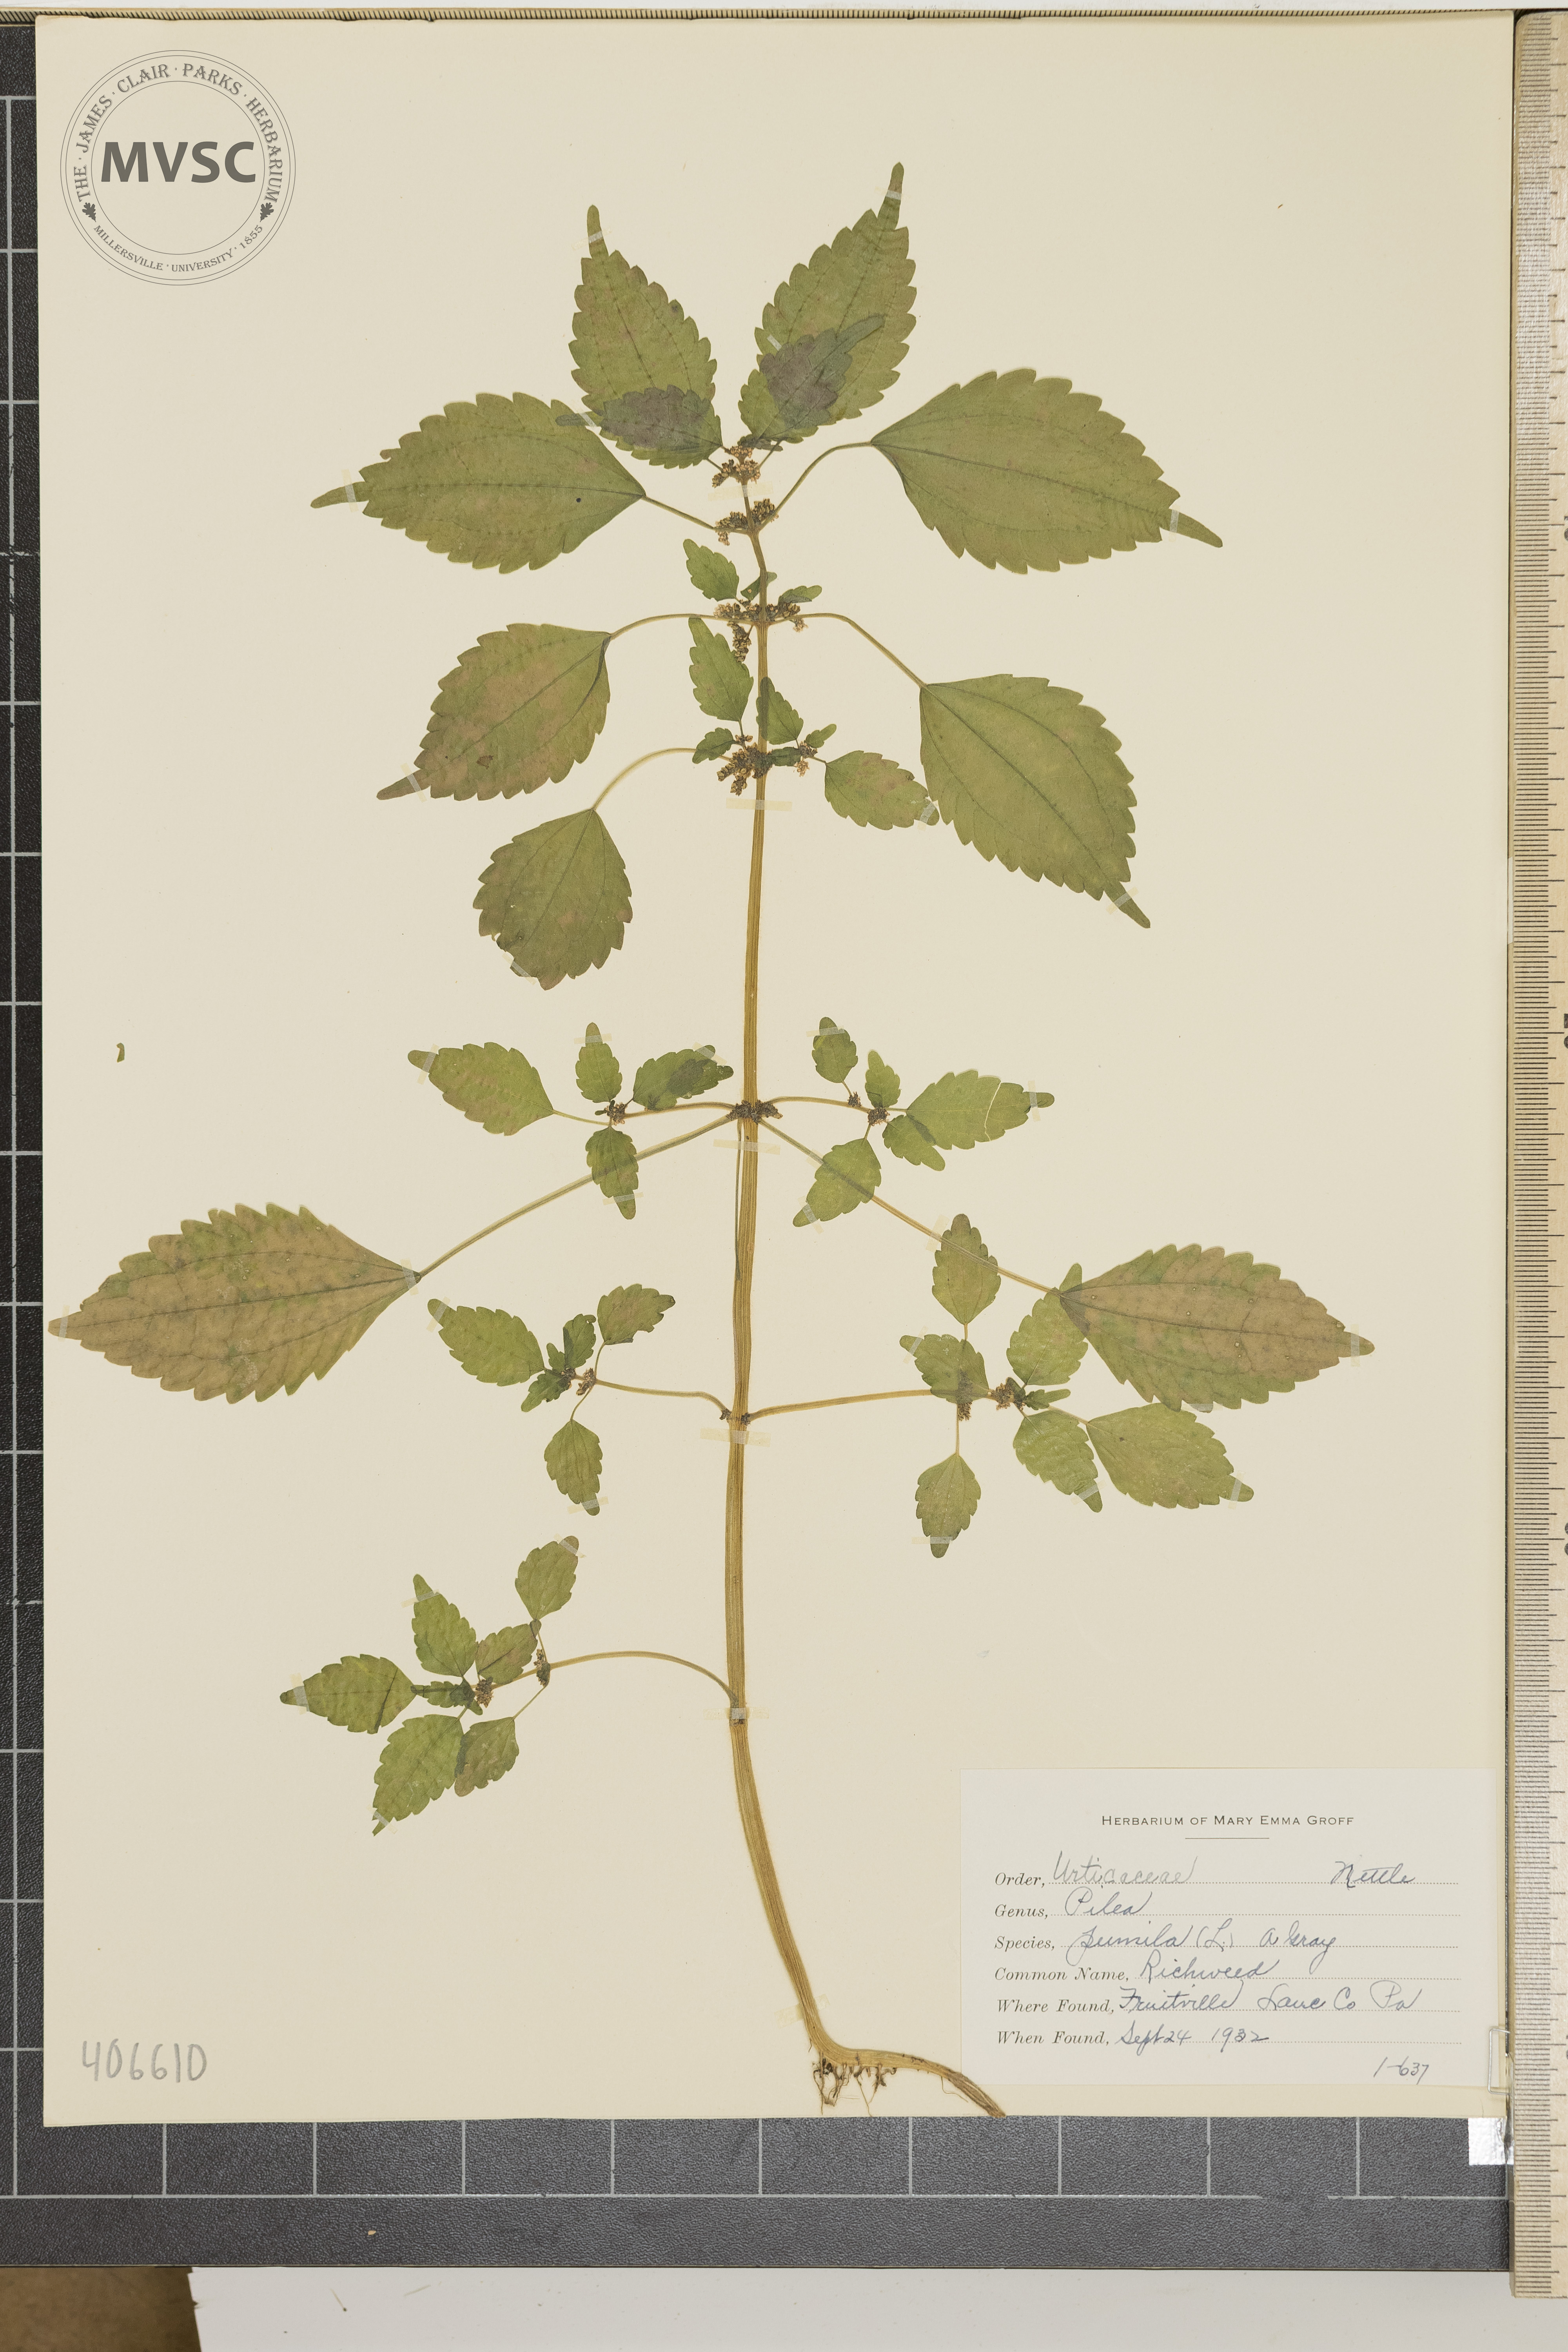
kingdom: Plantae
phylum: Tracheophyta
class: Magnoliopsida
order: Rosales
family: Urticaceae
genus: Pilea
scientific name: Pilea pumila
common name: Richweed
